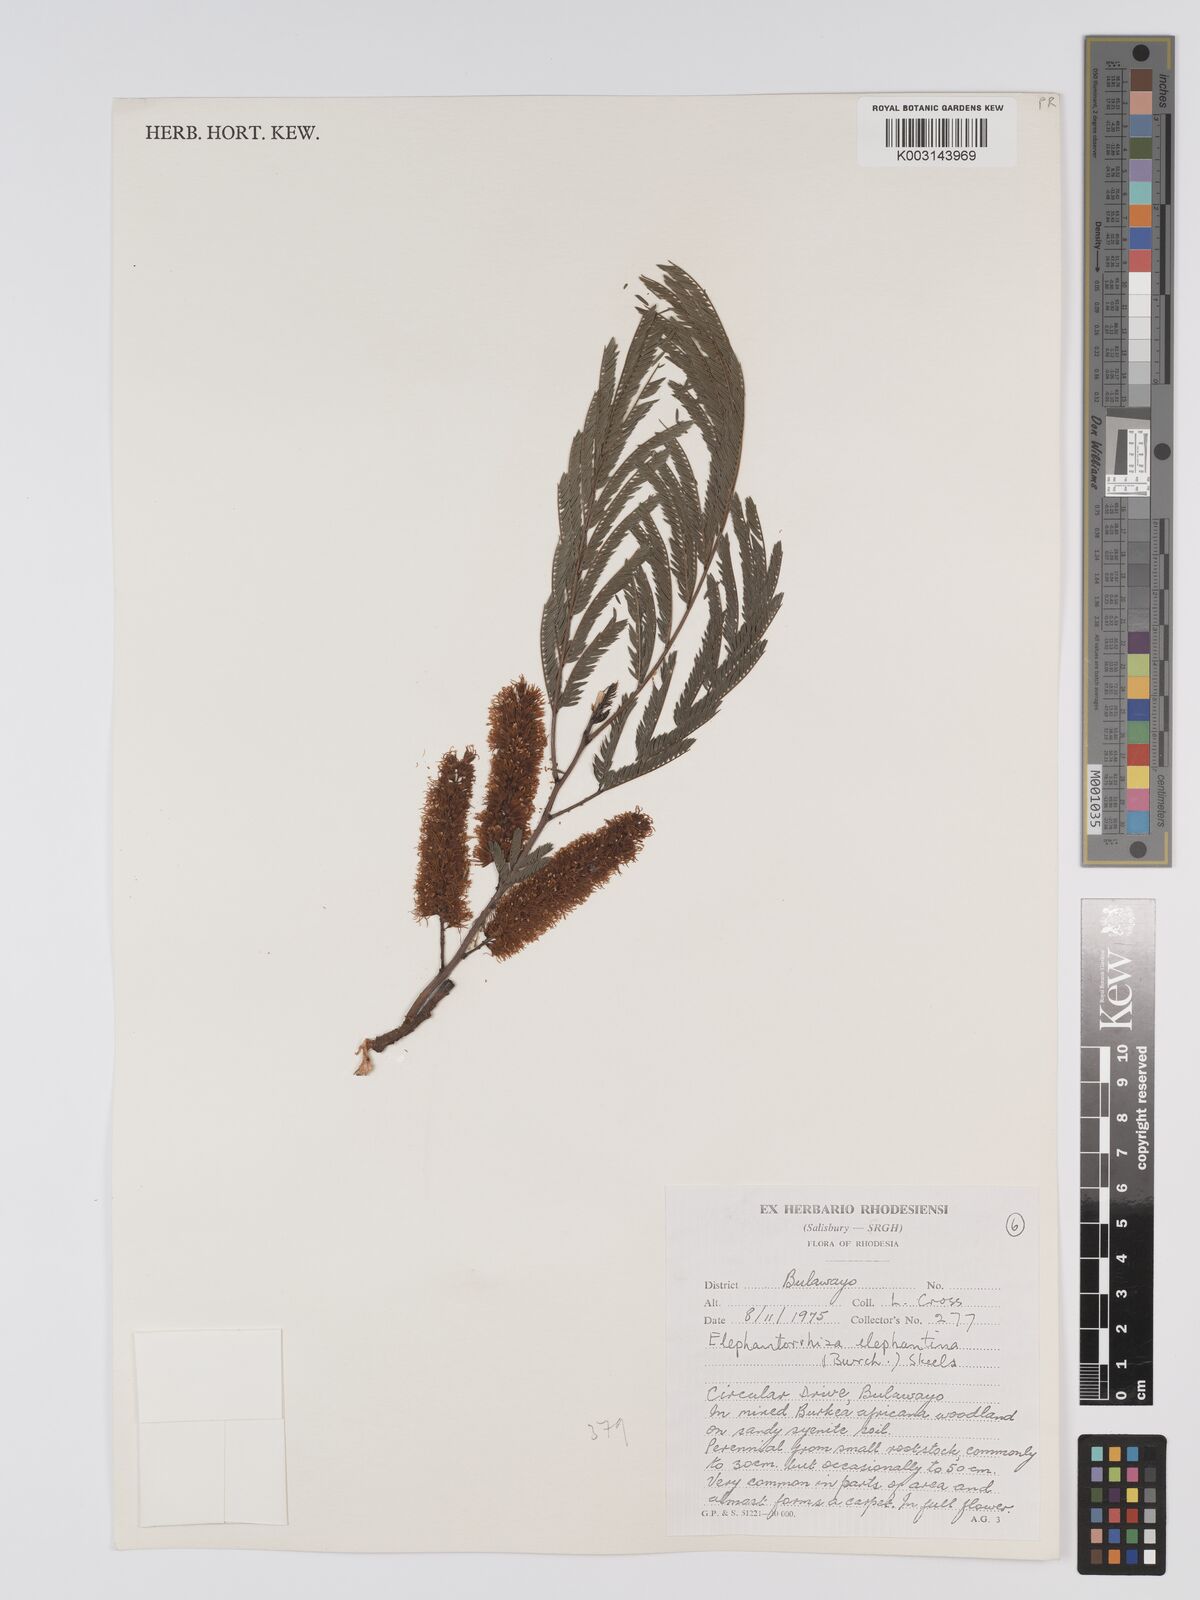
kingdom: Plantae
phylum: Tracheophyta
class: Magnoliopsida
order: Fabales
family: Fabaceae
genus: Elephantorrhiza
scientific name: Elephantorrhiza elephantina
